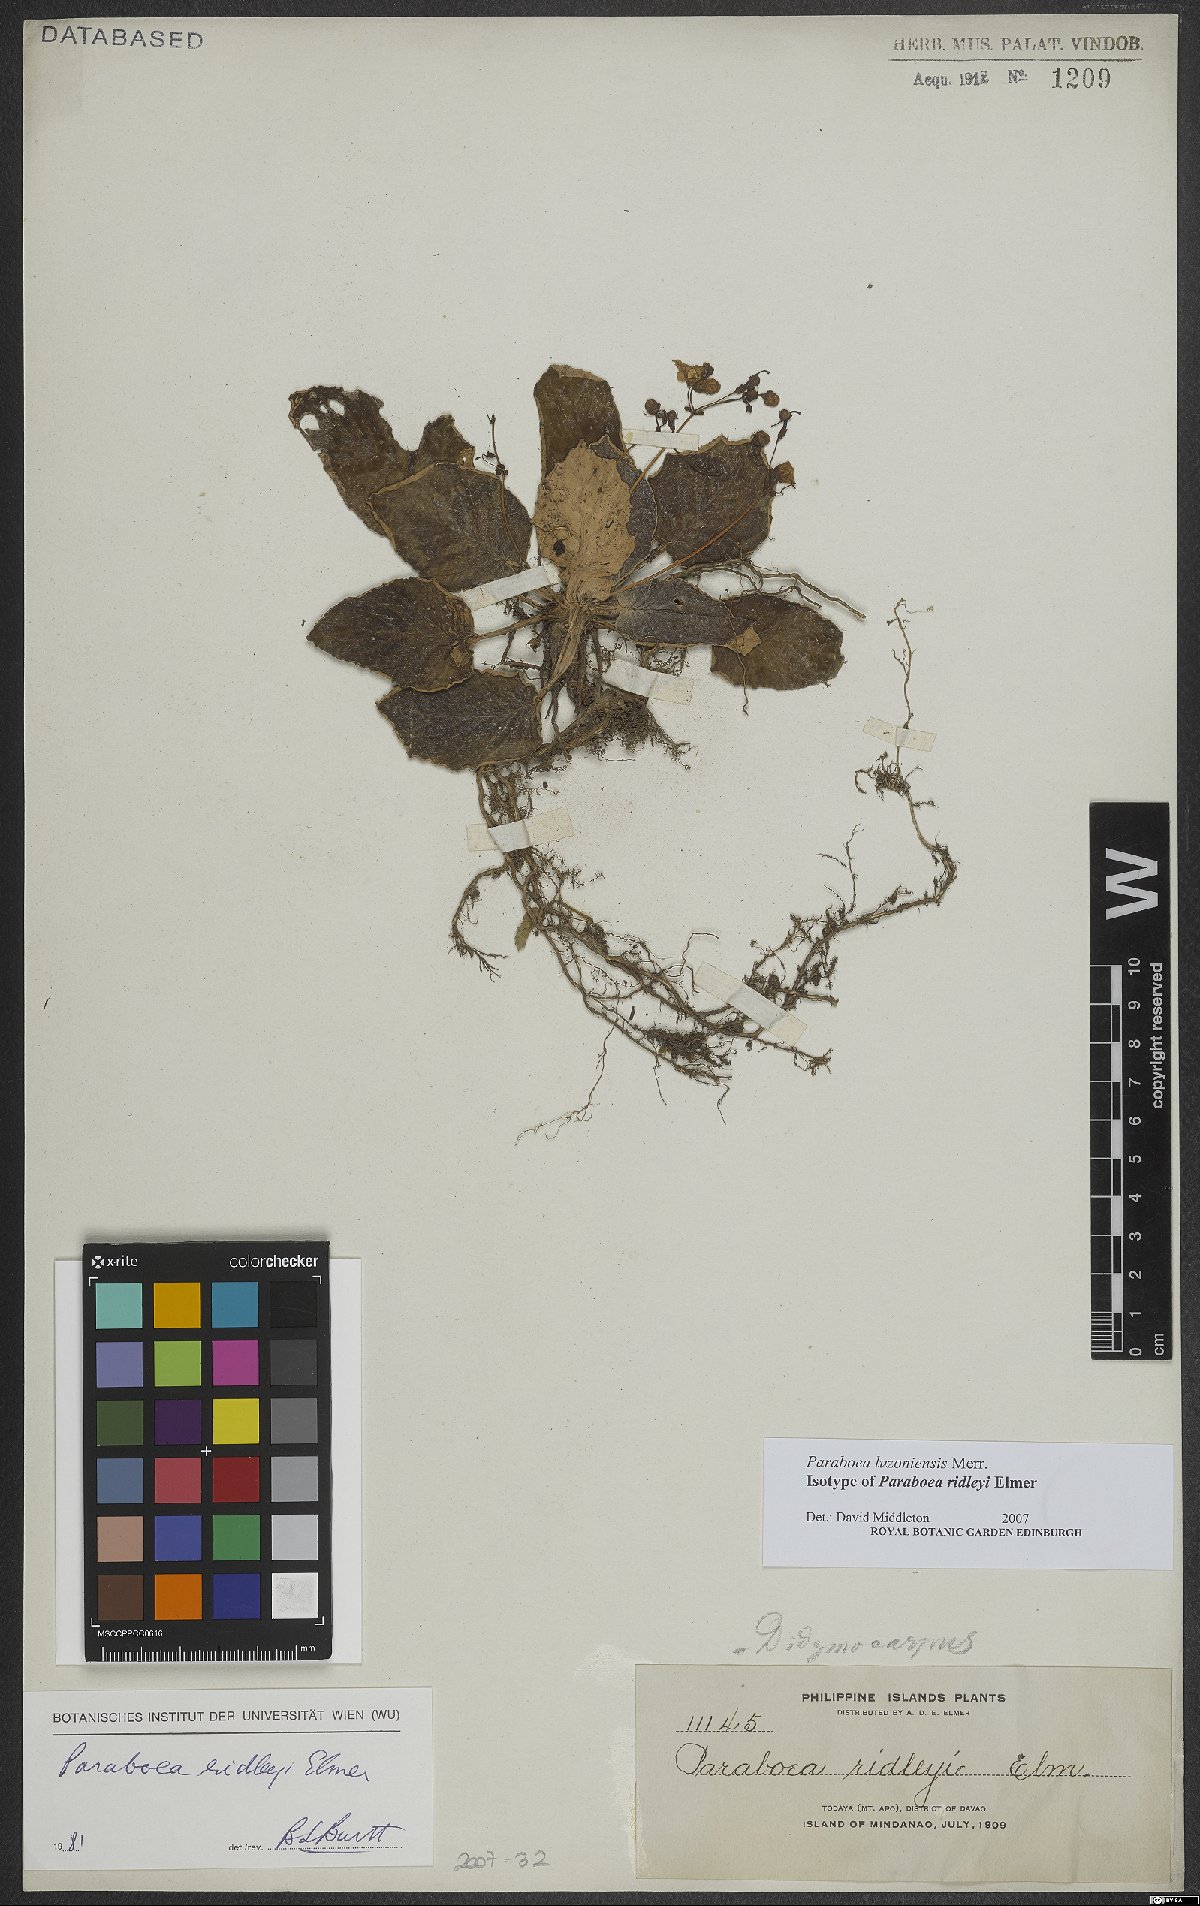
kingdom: Plantae
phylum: Tracheophyta
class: Magnoliopsida
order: Lamiales
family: Gesneriaceae
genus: Paraboea
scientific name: Paraboea luzoniensis
